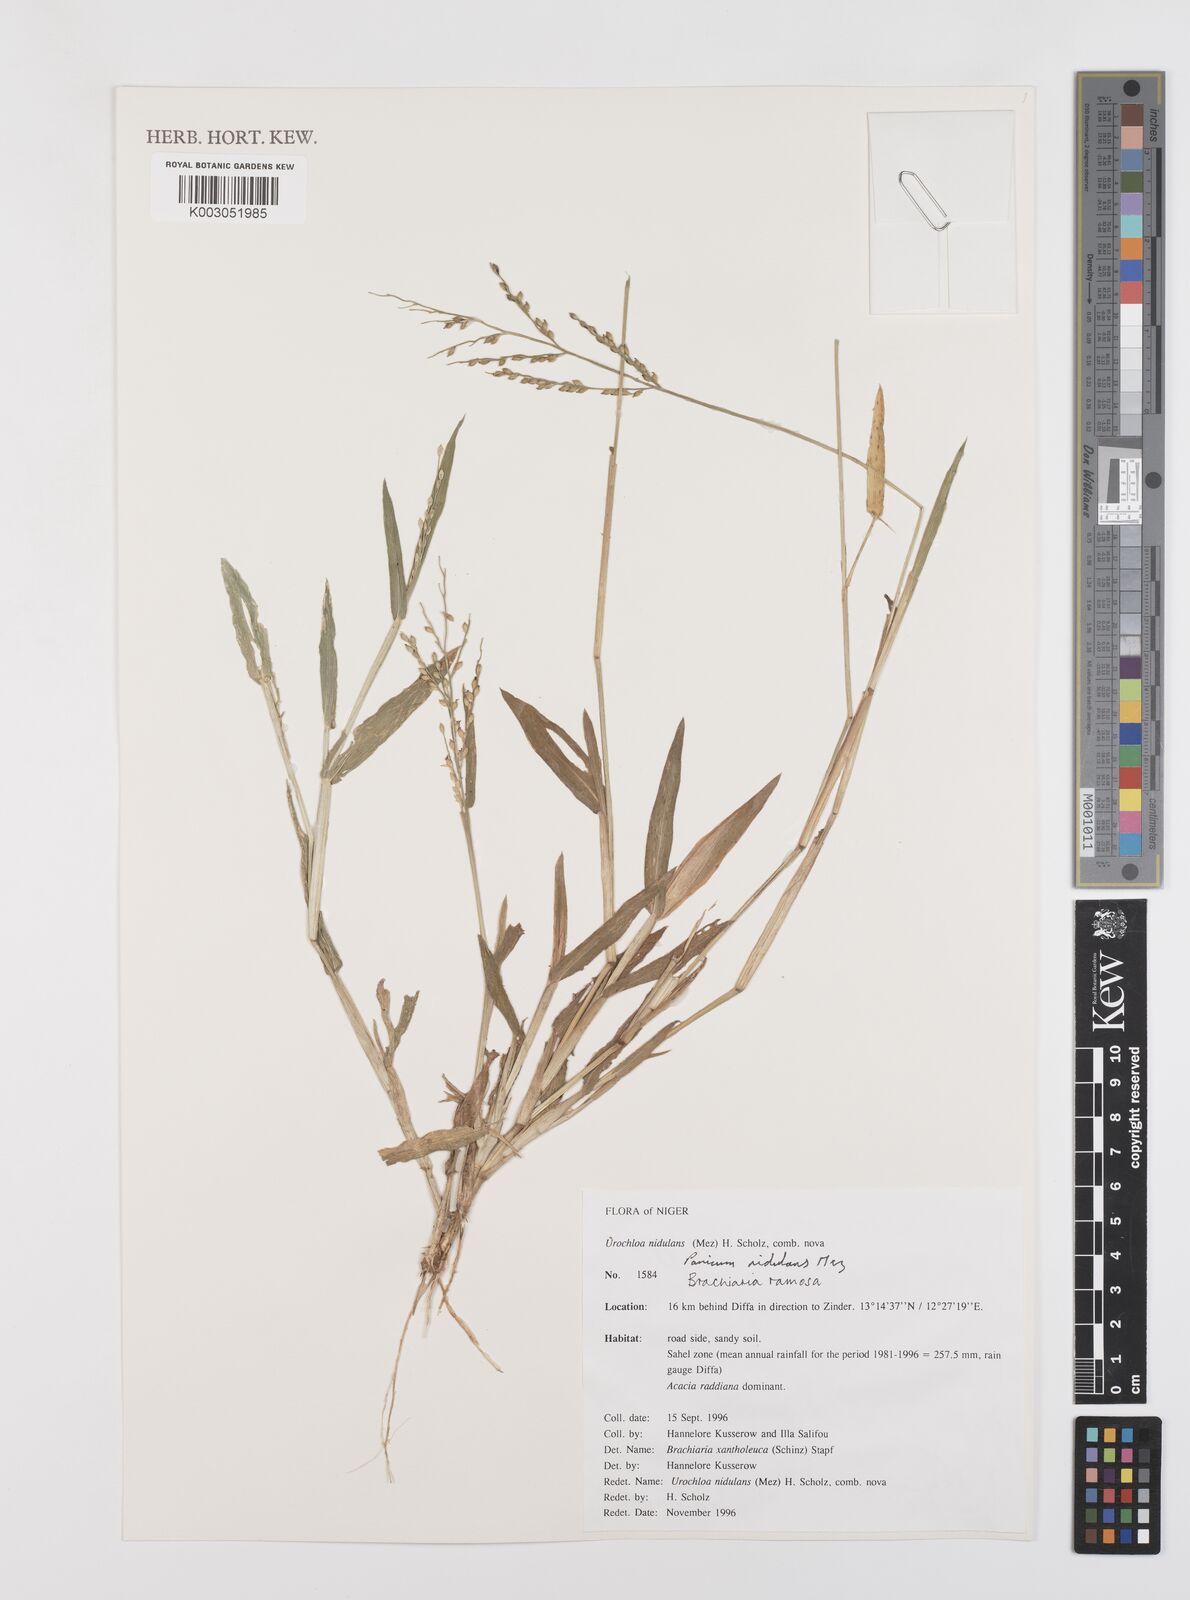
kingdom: Plantae
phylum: Tracheophyta
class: Liliopsida
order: Poales
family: Poaceae
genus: Urochloa
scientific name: Urochloa ramosa
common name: Browntop millet
